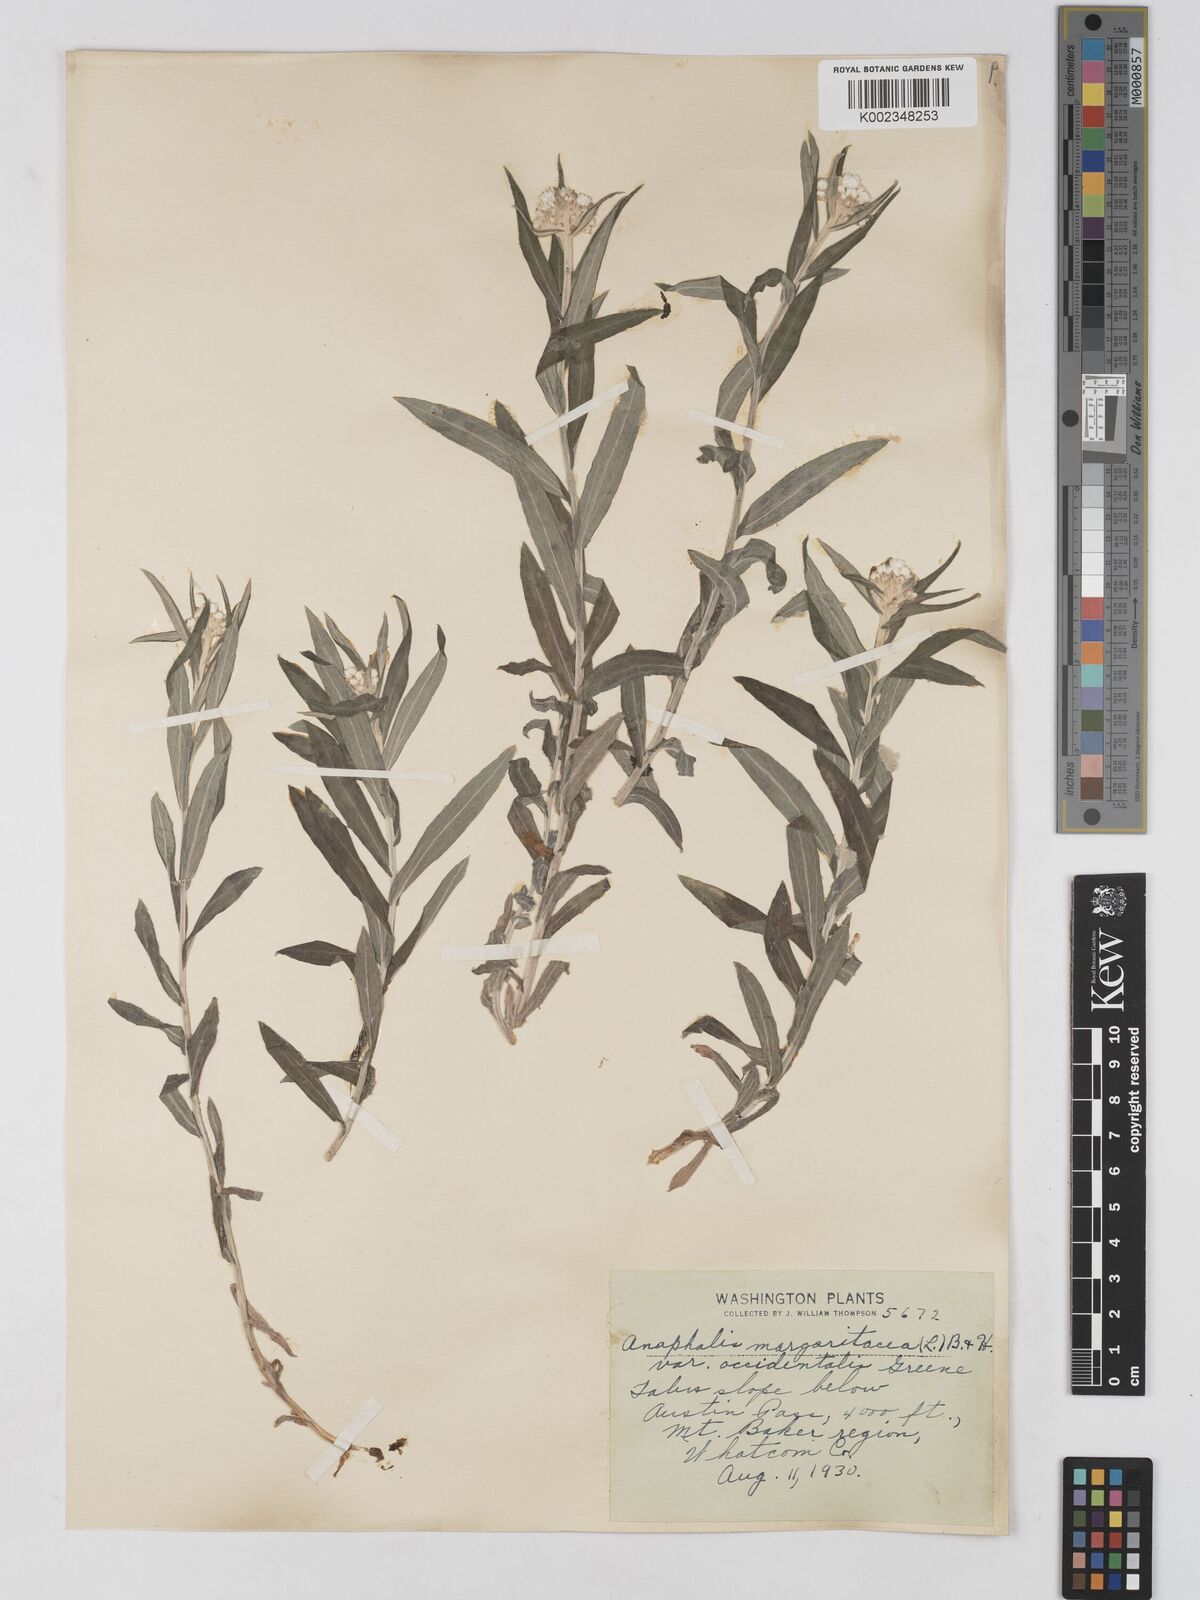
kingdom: Plantae
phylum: Tracheophyta
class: Magnoliopsida
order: Asterales
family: Asteraceae
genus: Anaphalis
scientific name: Anaphalis margaritacea
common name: Pearly everlasting
